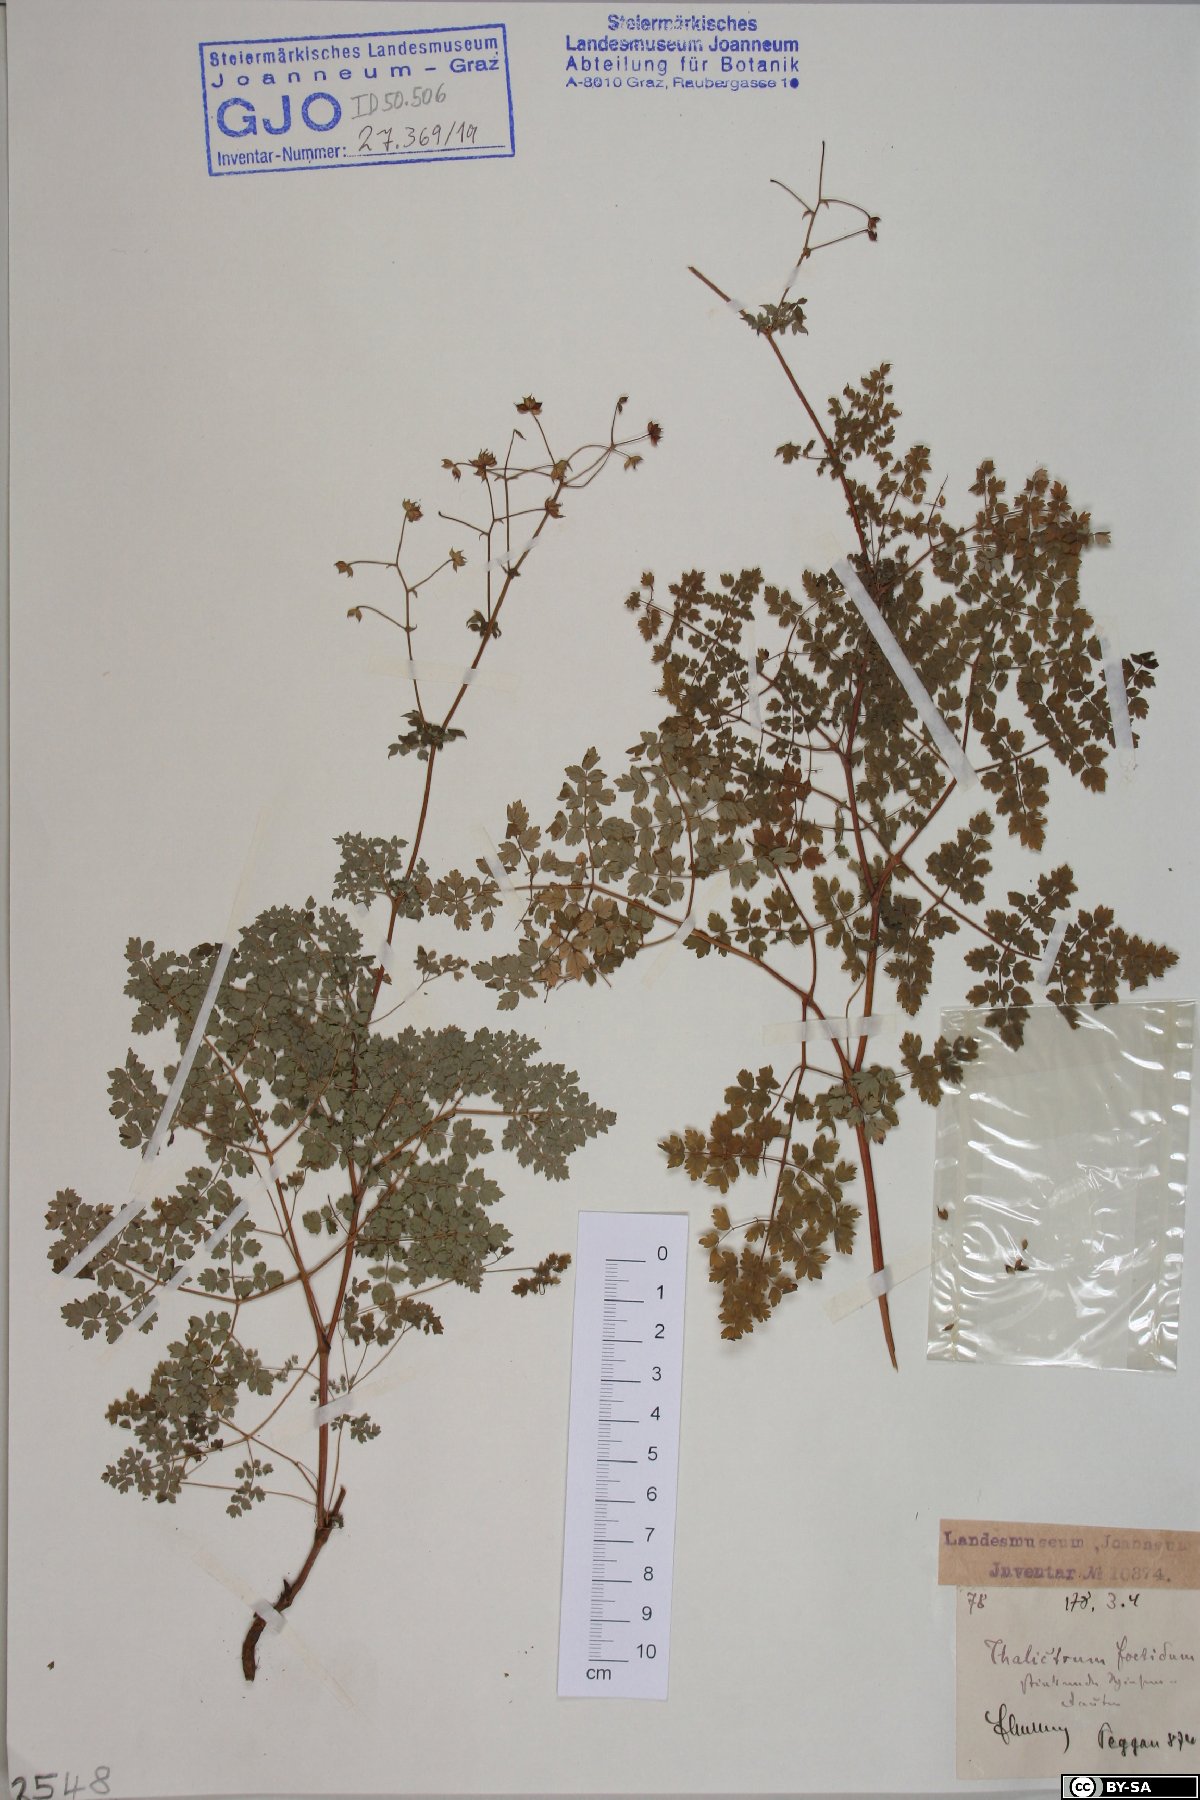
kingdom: Plantae
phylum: Tracheophyta
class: Magnoliopsida
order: Ranunculales
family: Ranunculaceae
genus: Thalictrum
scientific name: Thalictrum foetidum
